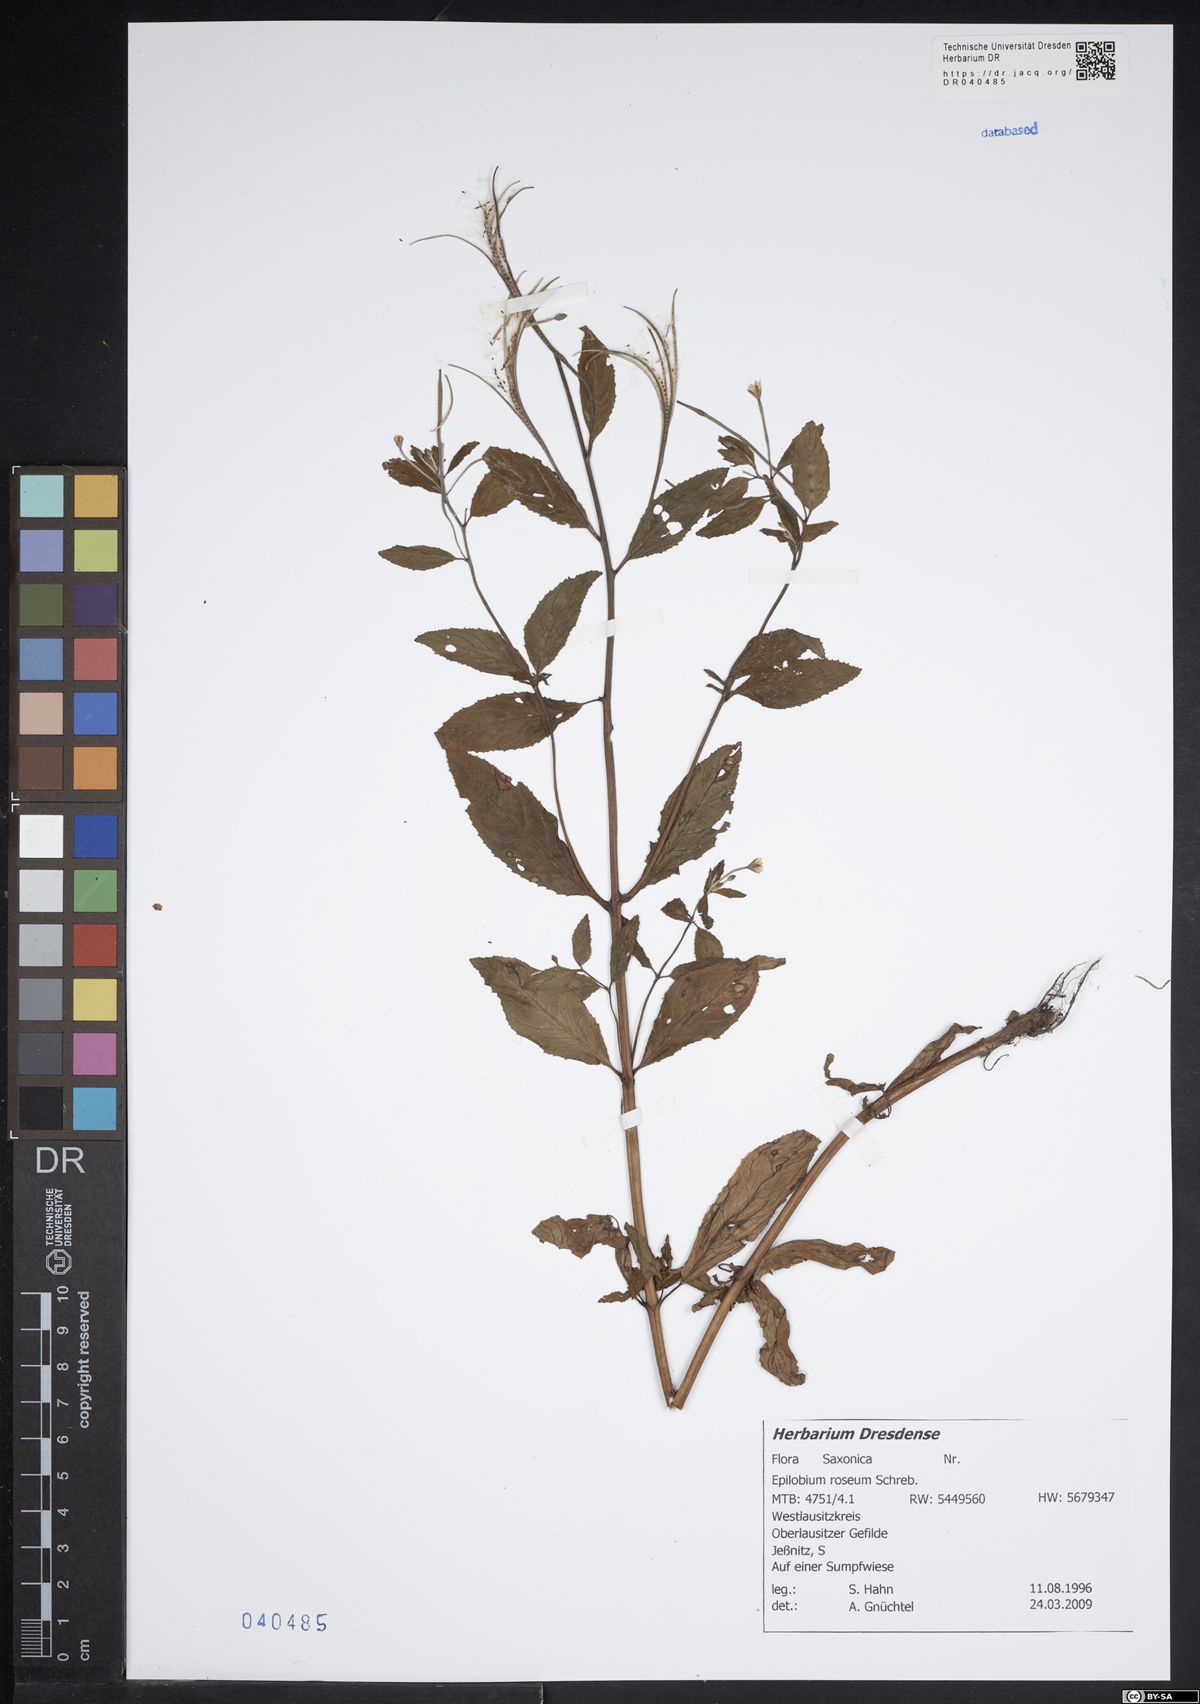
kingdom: Plantae
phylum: Tracheophyta
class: Magnoliopsida
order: Myrtales
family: Onagraceae
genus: Epilobium
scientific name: Epilobium roseum
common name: Pale willowherb
